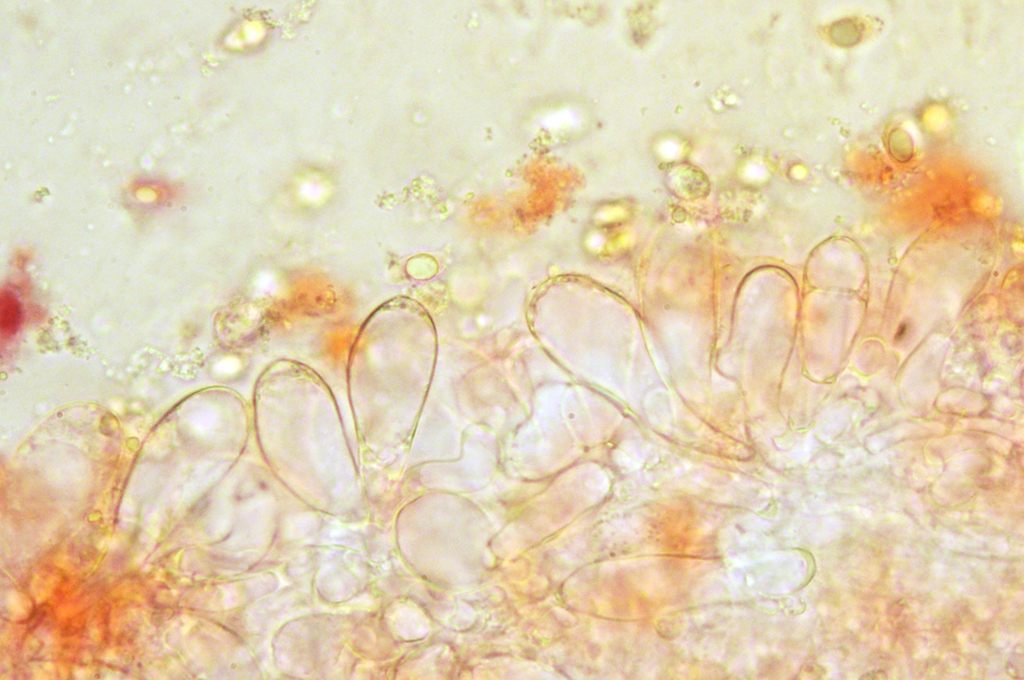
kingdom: Fungi
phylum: Basidiomycota
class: Agaricomycetes
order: Agaricales
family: Mycenaceae
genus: Mycena
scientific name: Mycena abramsii
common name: sommer-huesvamp
